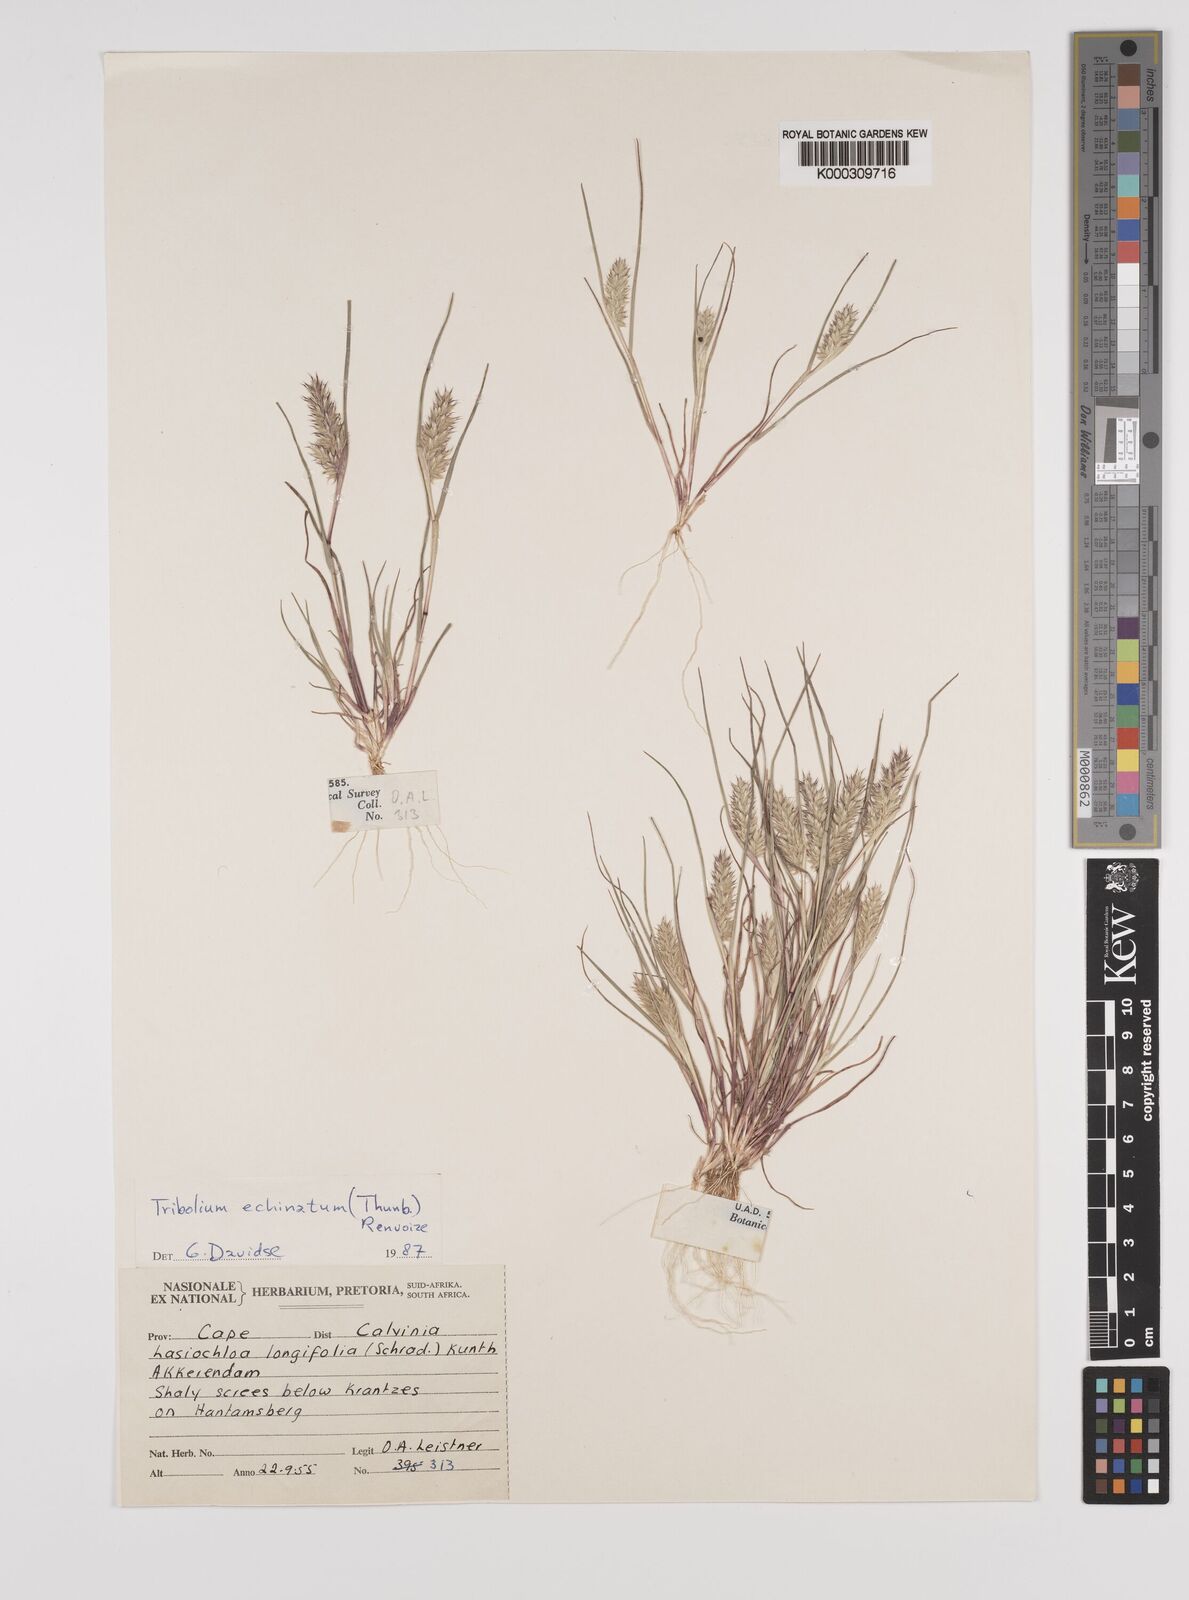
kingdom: Plantae
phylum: Tracheophyta
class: Liliopsida
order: Poales
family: Poaceae
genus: Tribolium
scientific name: Tribolium echinatum
